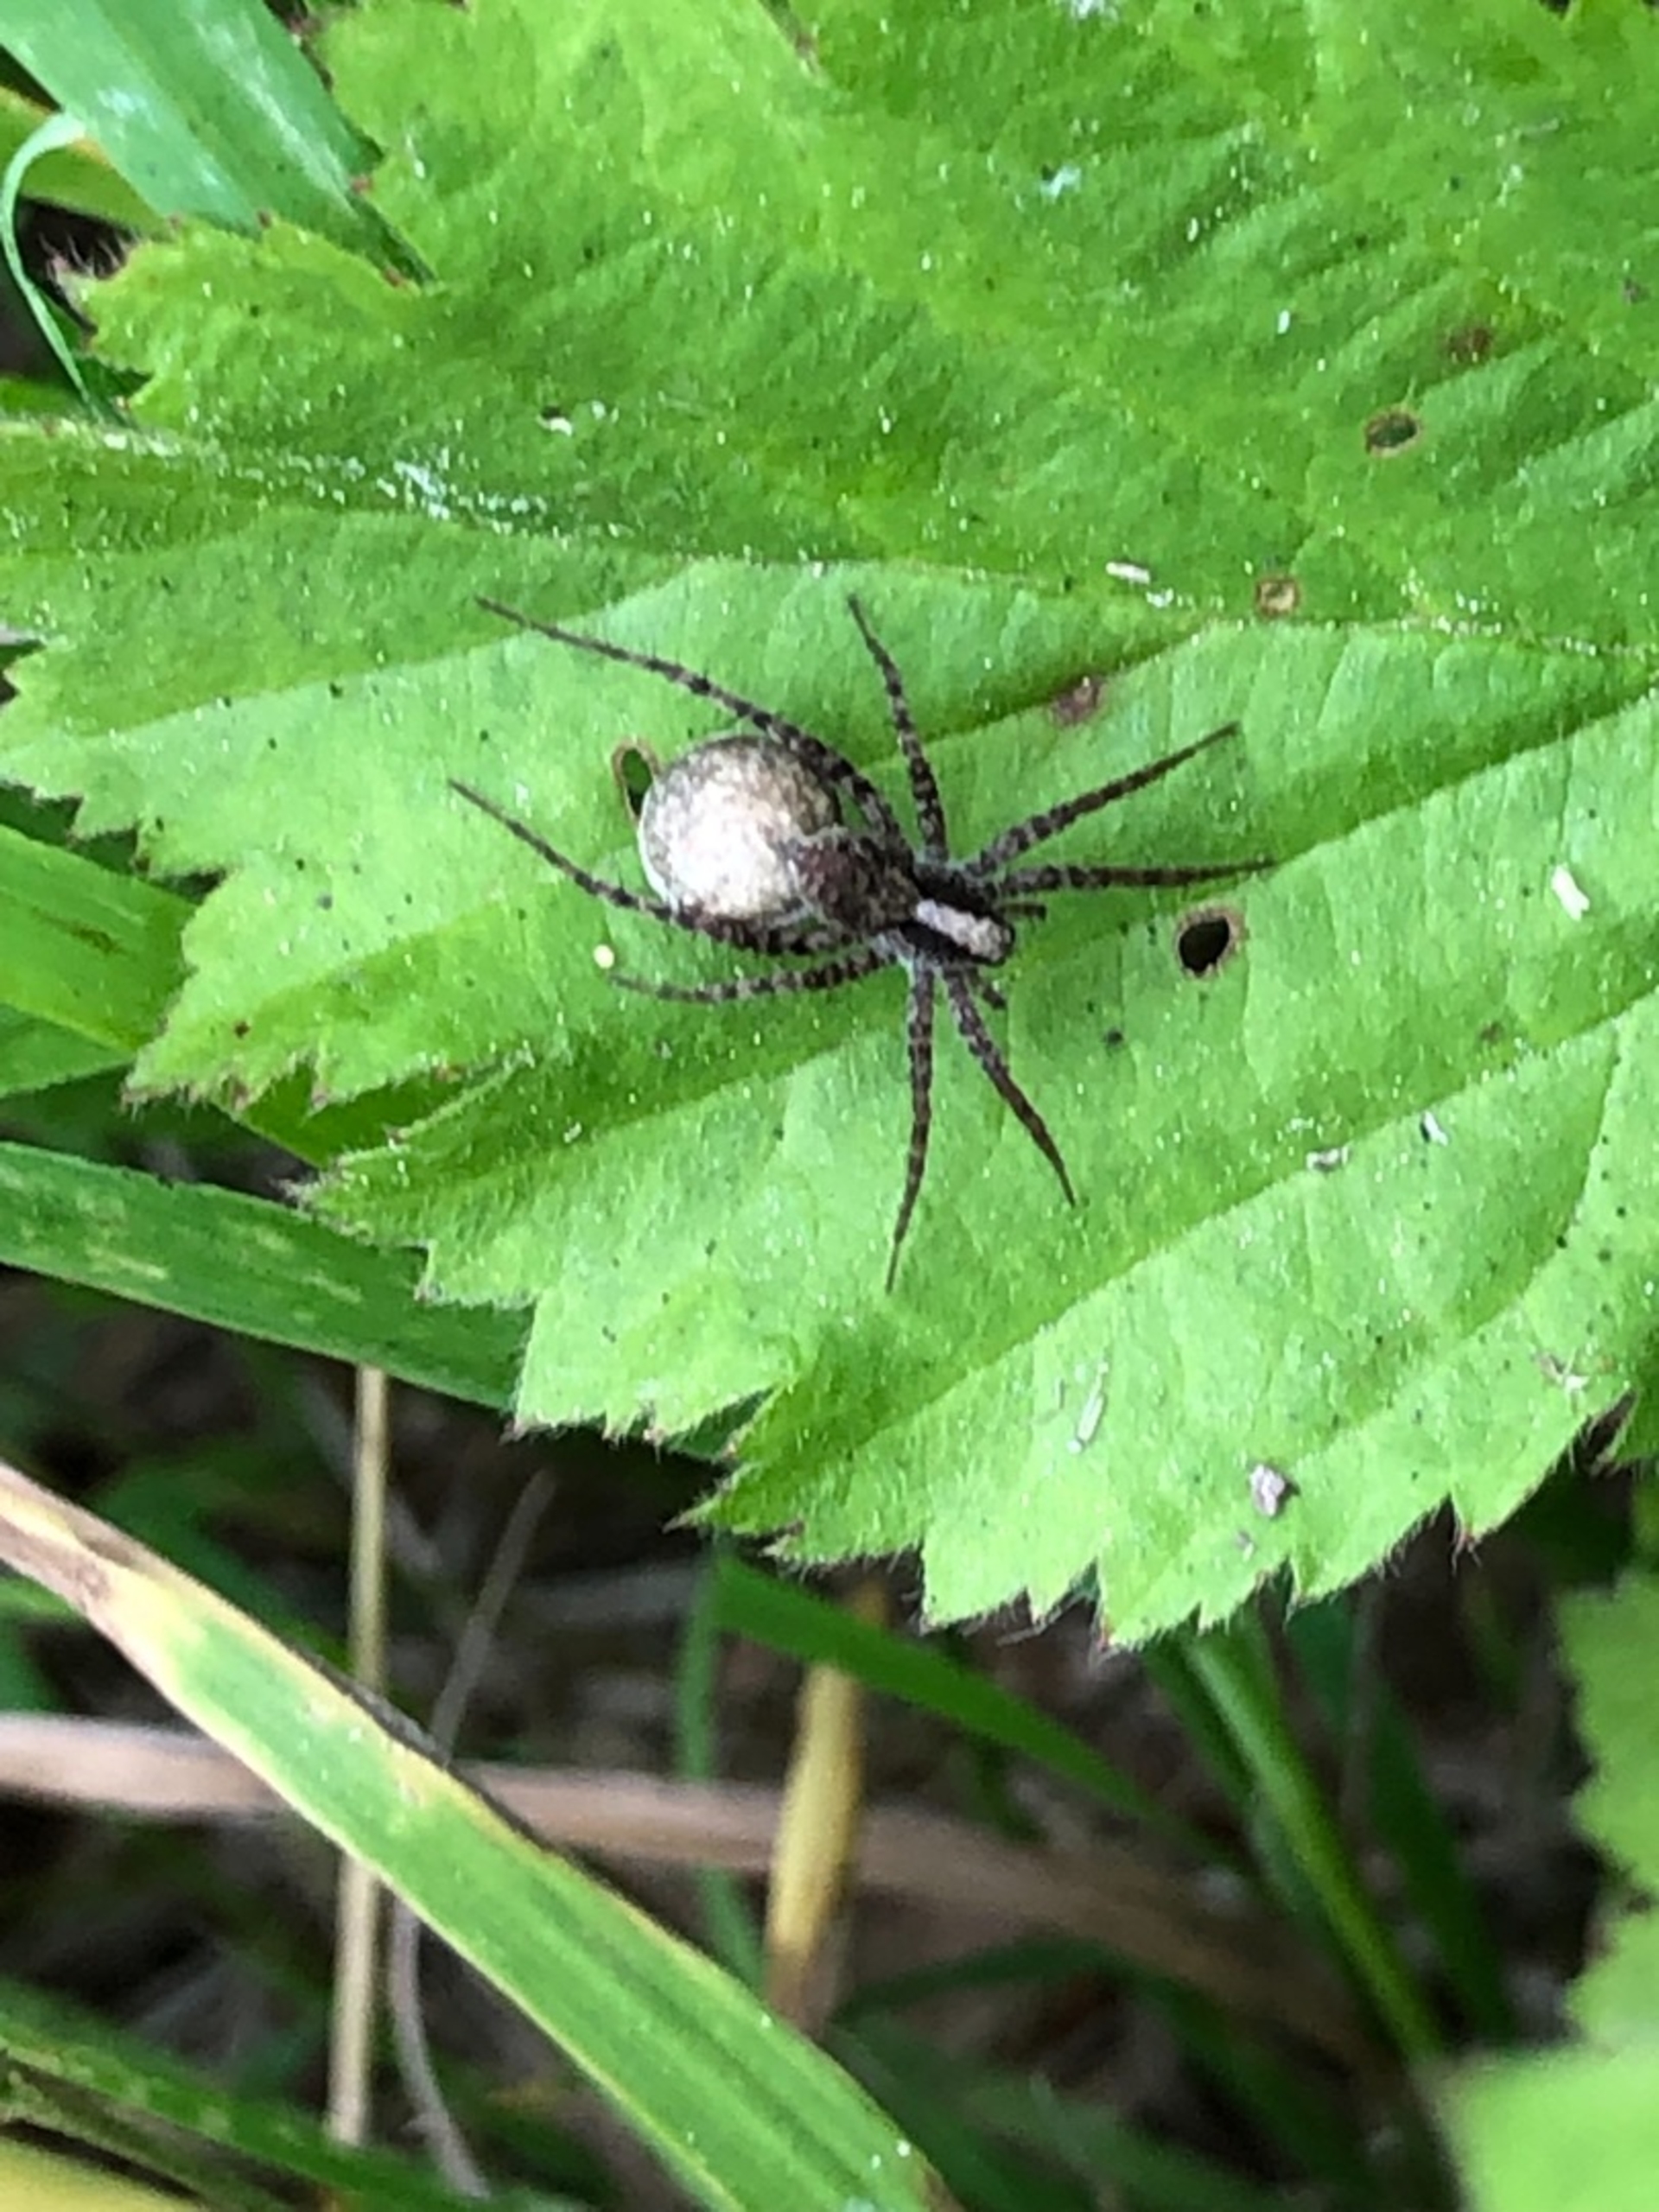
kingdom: Animalia
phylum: Arthropoda
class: Arachnida
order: Araneae
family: Lycosidae
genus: Pardosa
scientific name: Pardosa
